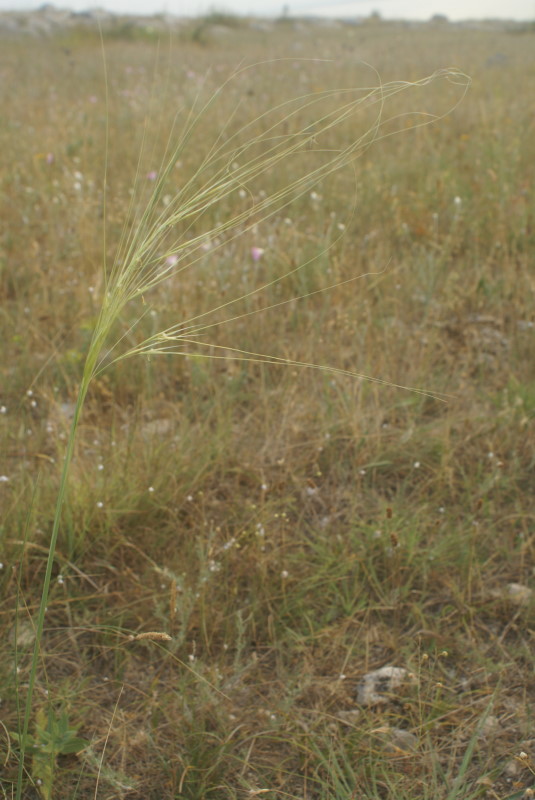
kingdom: Plantae
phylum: Tracheophyta
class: Liliopsida
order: Poales
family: Poaceae
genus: Stipa
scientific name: Stipa
